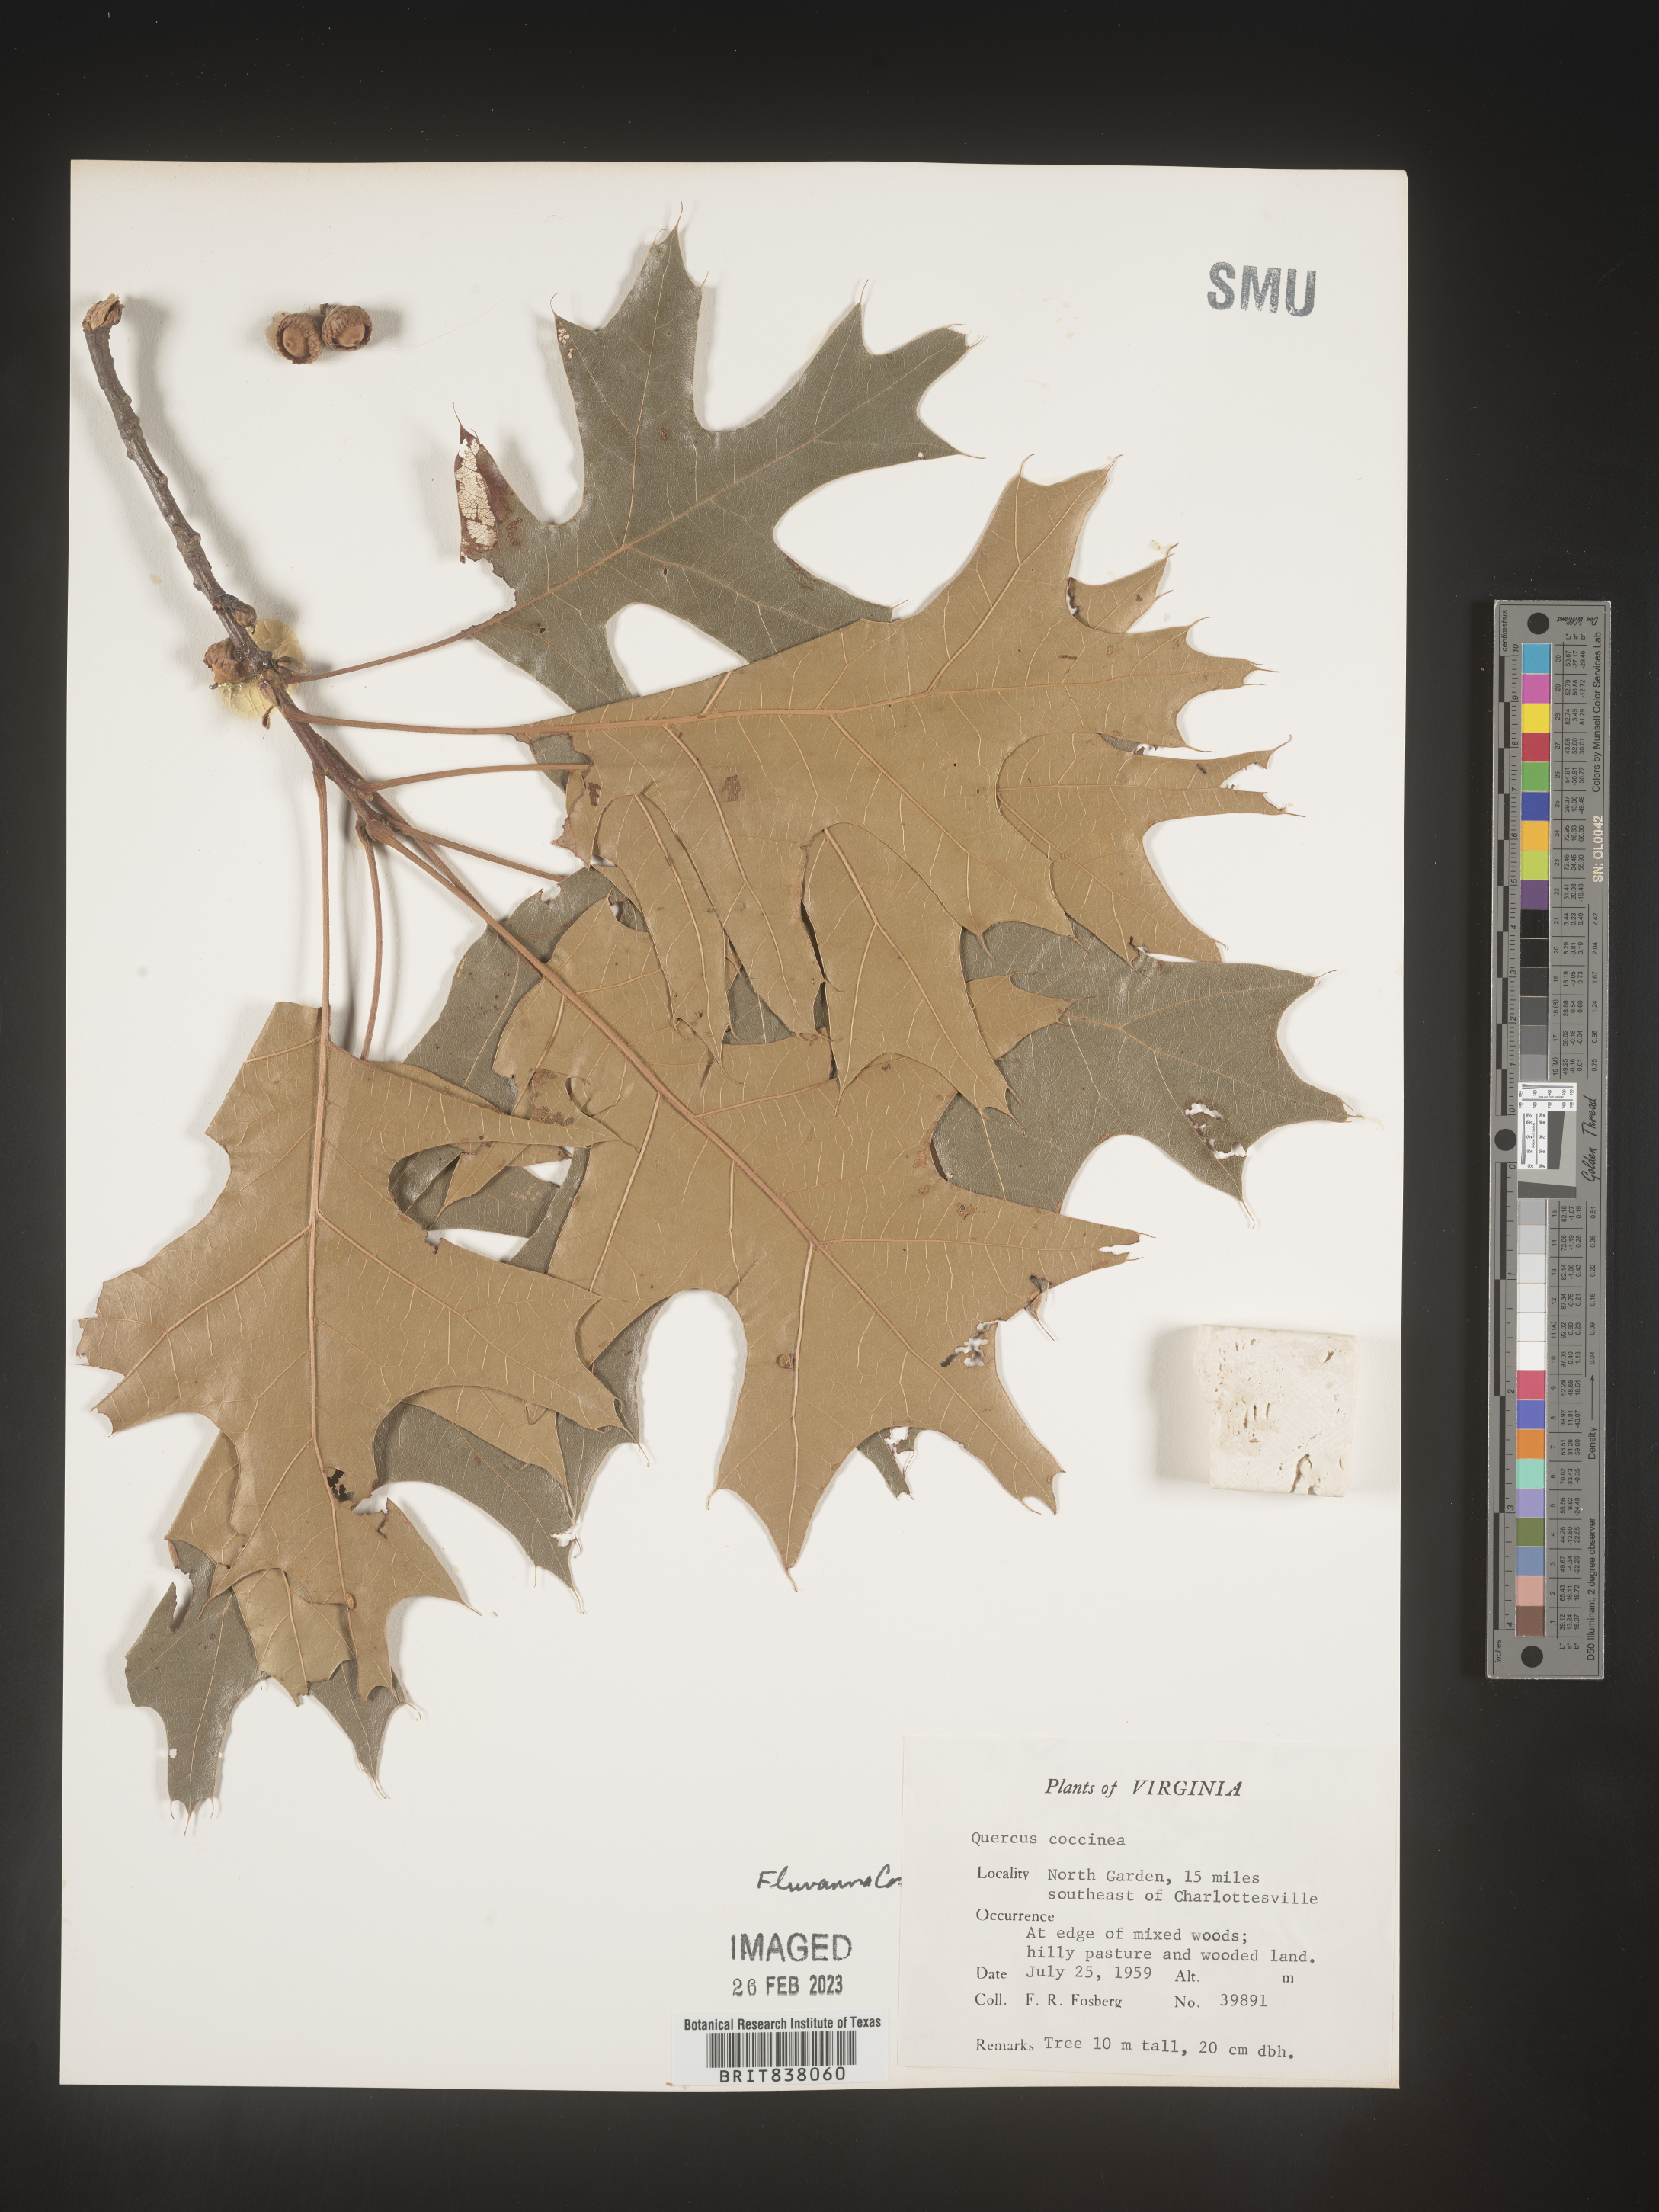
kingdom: Plantae
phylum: Tracheophyta
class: Magnoliopsida
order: Fagales
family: Fagaceae
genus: Quercus
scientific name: Quercus coccinea
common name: Scarlet oak
